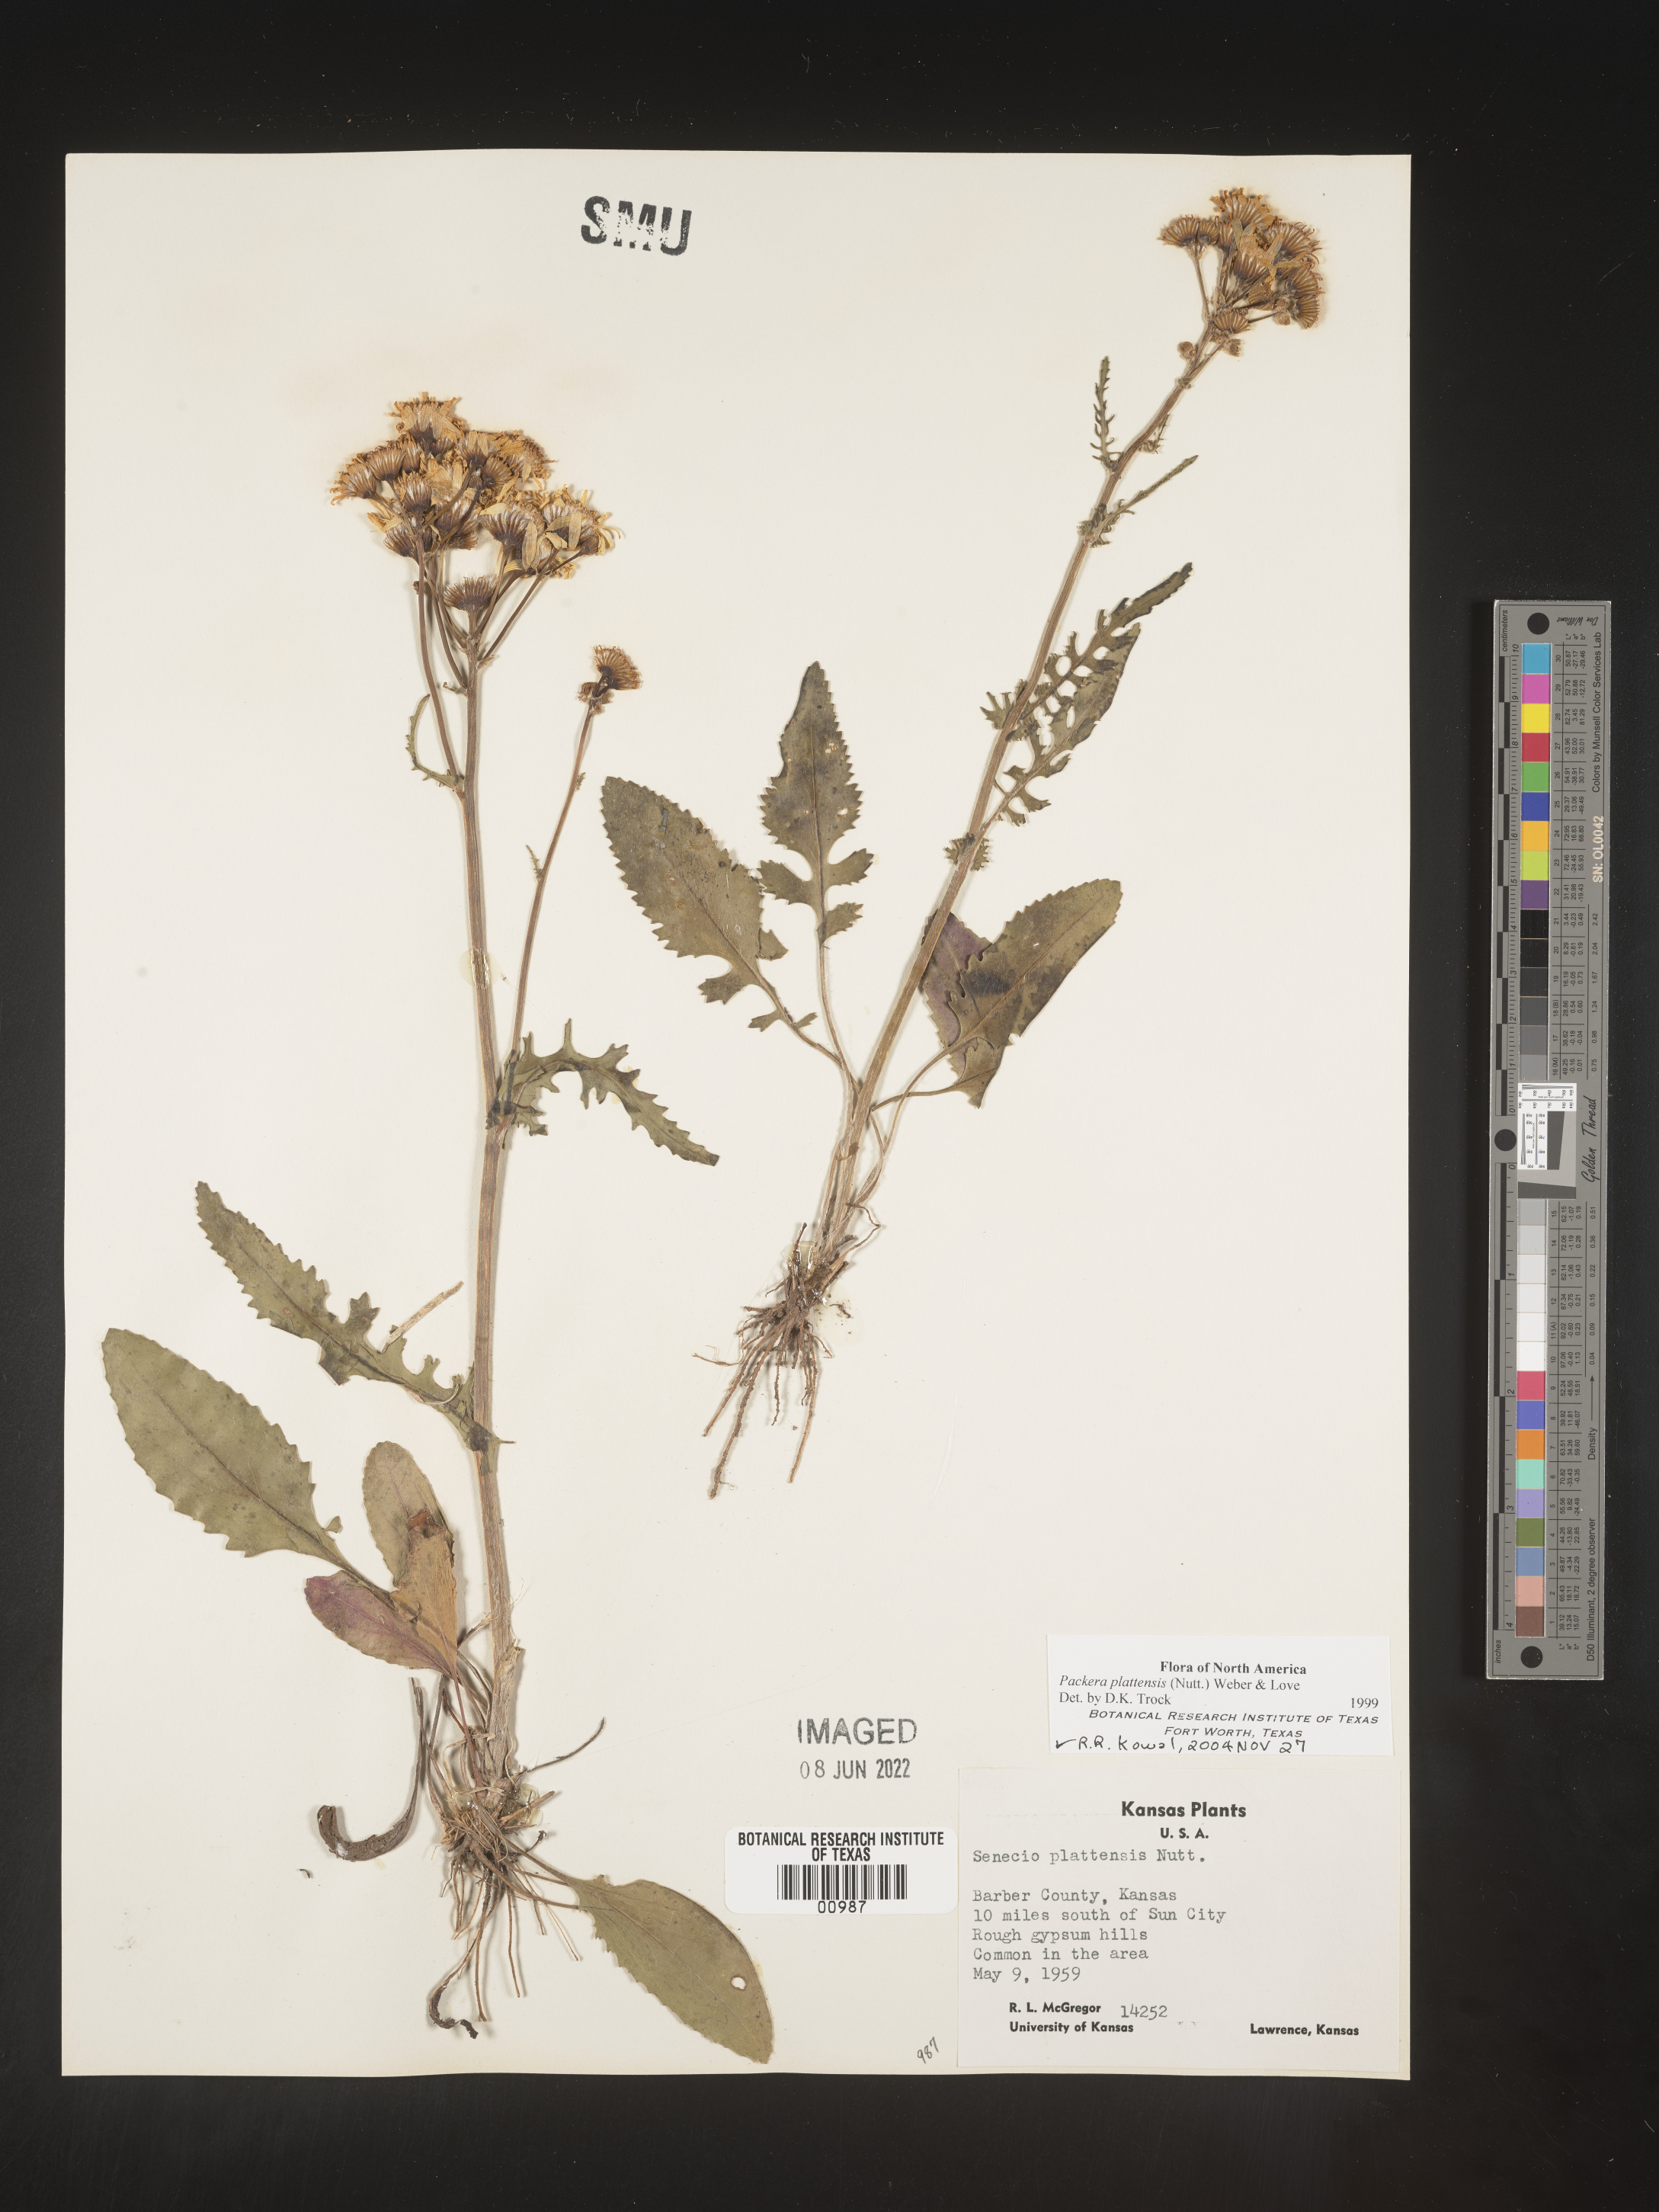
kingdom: Plantae
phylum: Tracheophyta
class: Magnoliopsida
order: Asterales
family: Asteraceae
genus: Packera
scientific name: Packera plattensis
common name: Prairie groundsel
